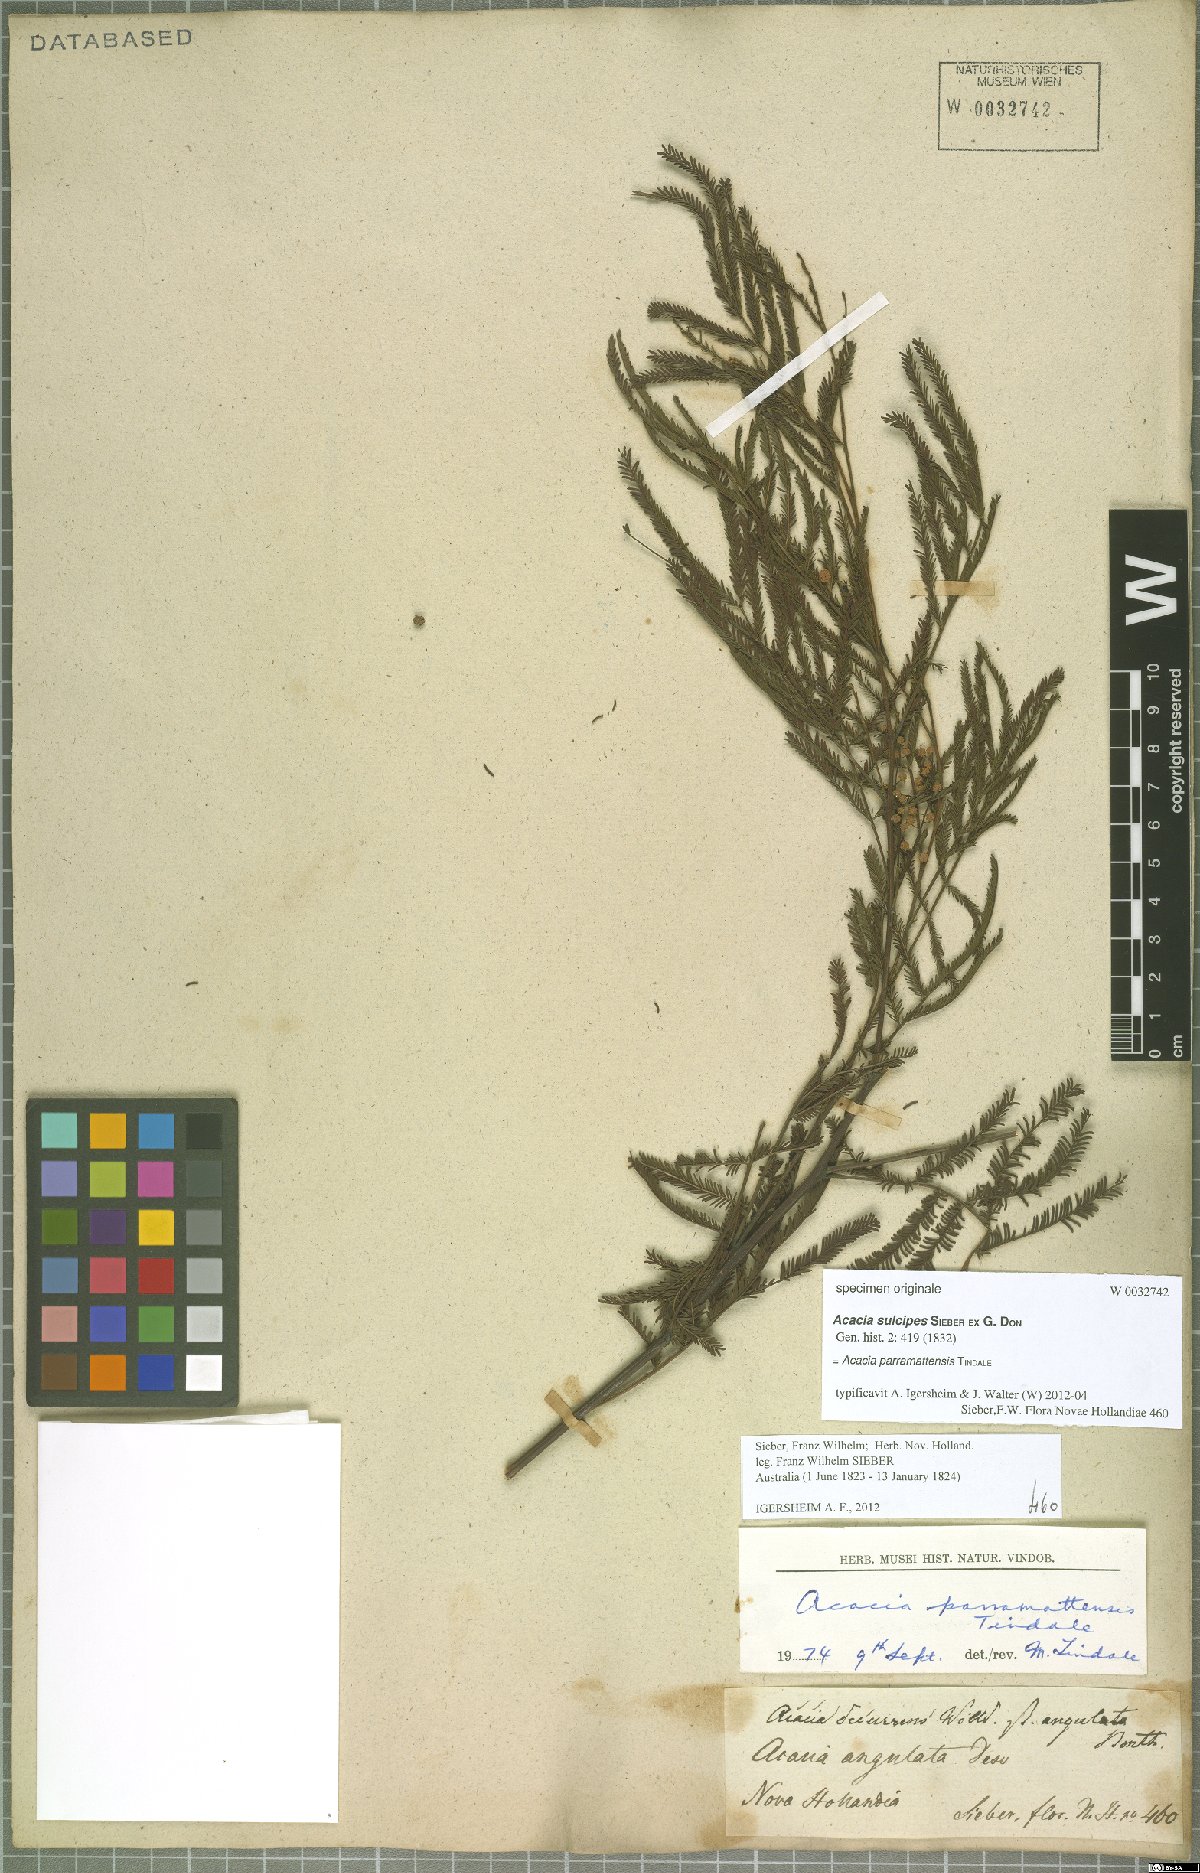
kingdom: Plantae
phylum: Tracheophyta
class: Magnoliopsida
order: Fabales
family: Fabaceae
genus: Acacia
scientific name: Acacia parramattensis
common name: Sydney green wattle
